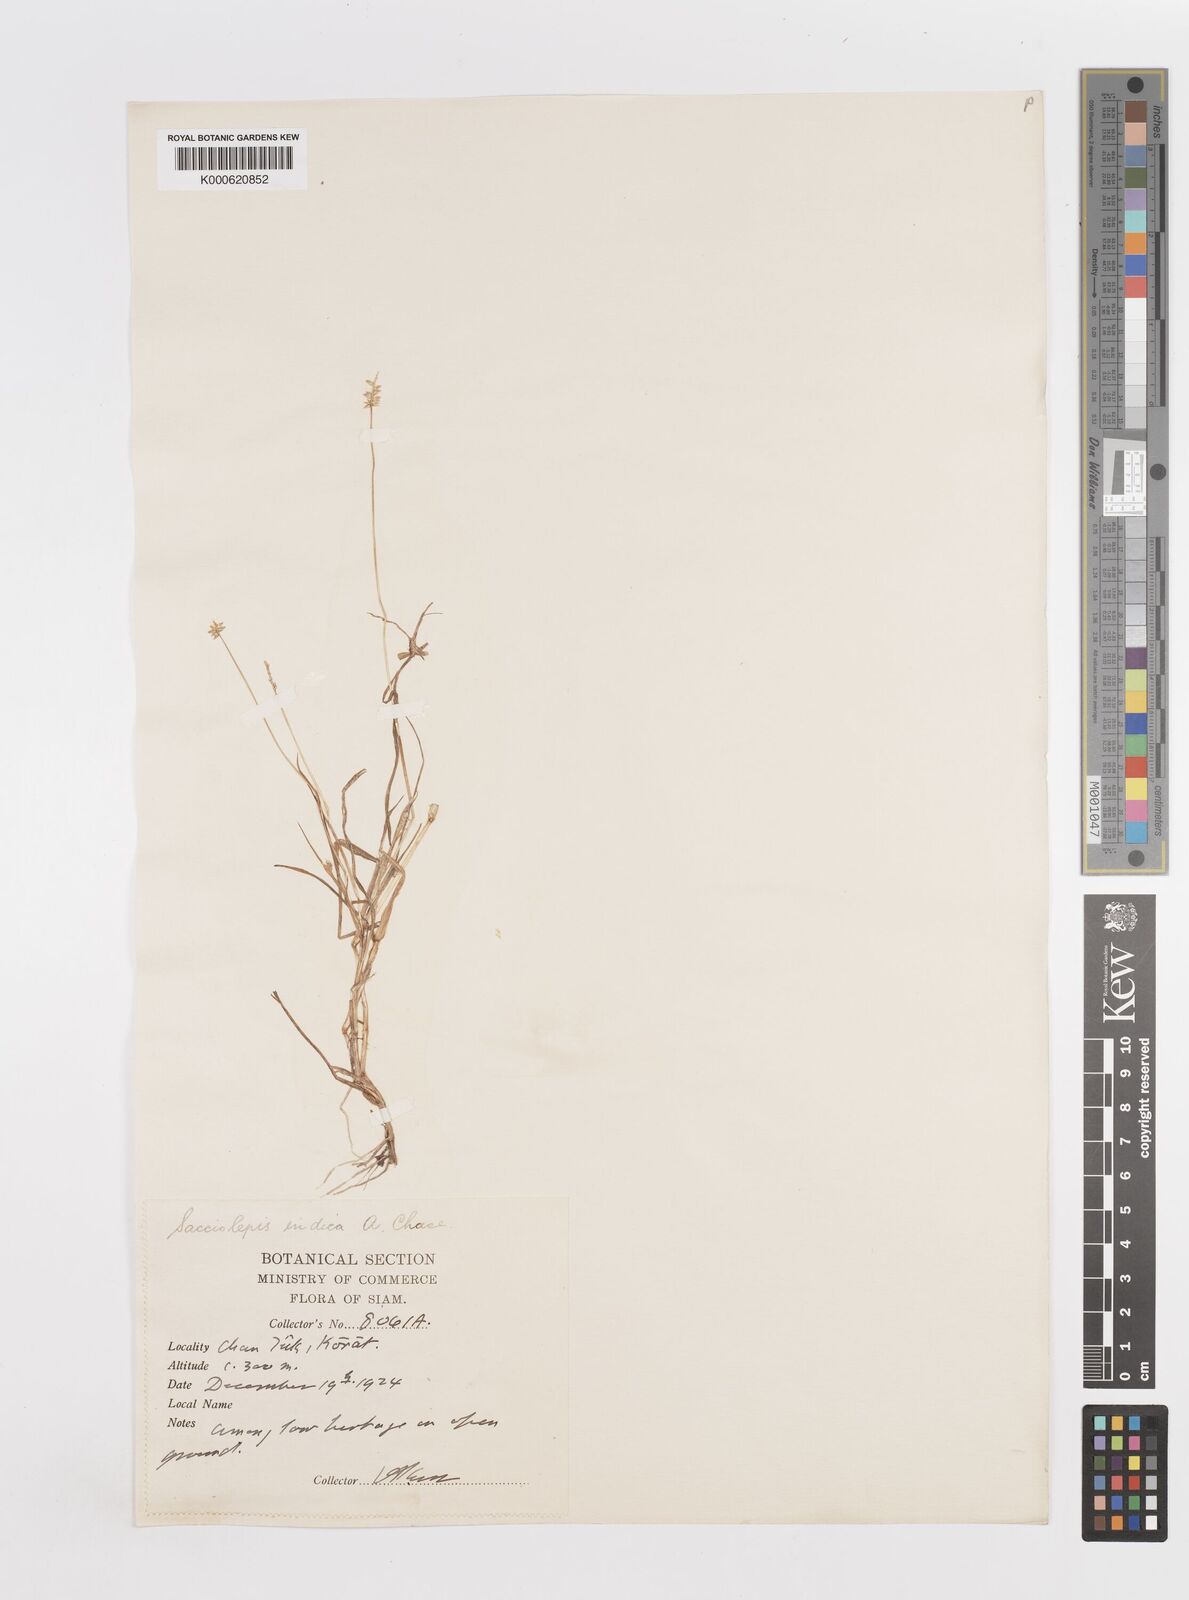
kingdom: Plantae
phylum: Tracheophyta
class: Liliopsida
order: Poales
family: Poaceae
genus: Sacciolepis
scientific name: Sacciolepis indica
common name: Glenwoodgrass
